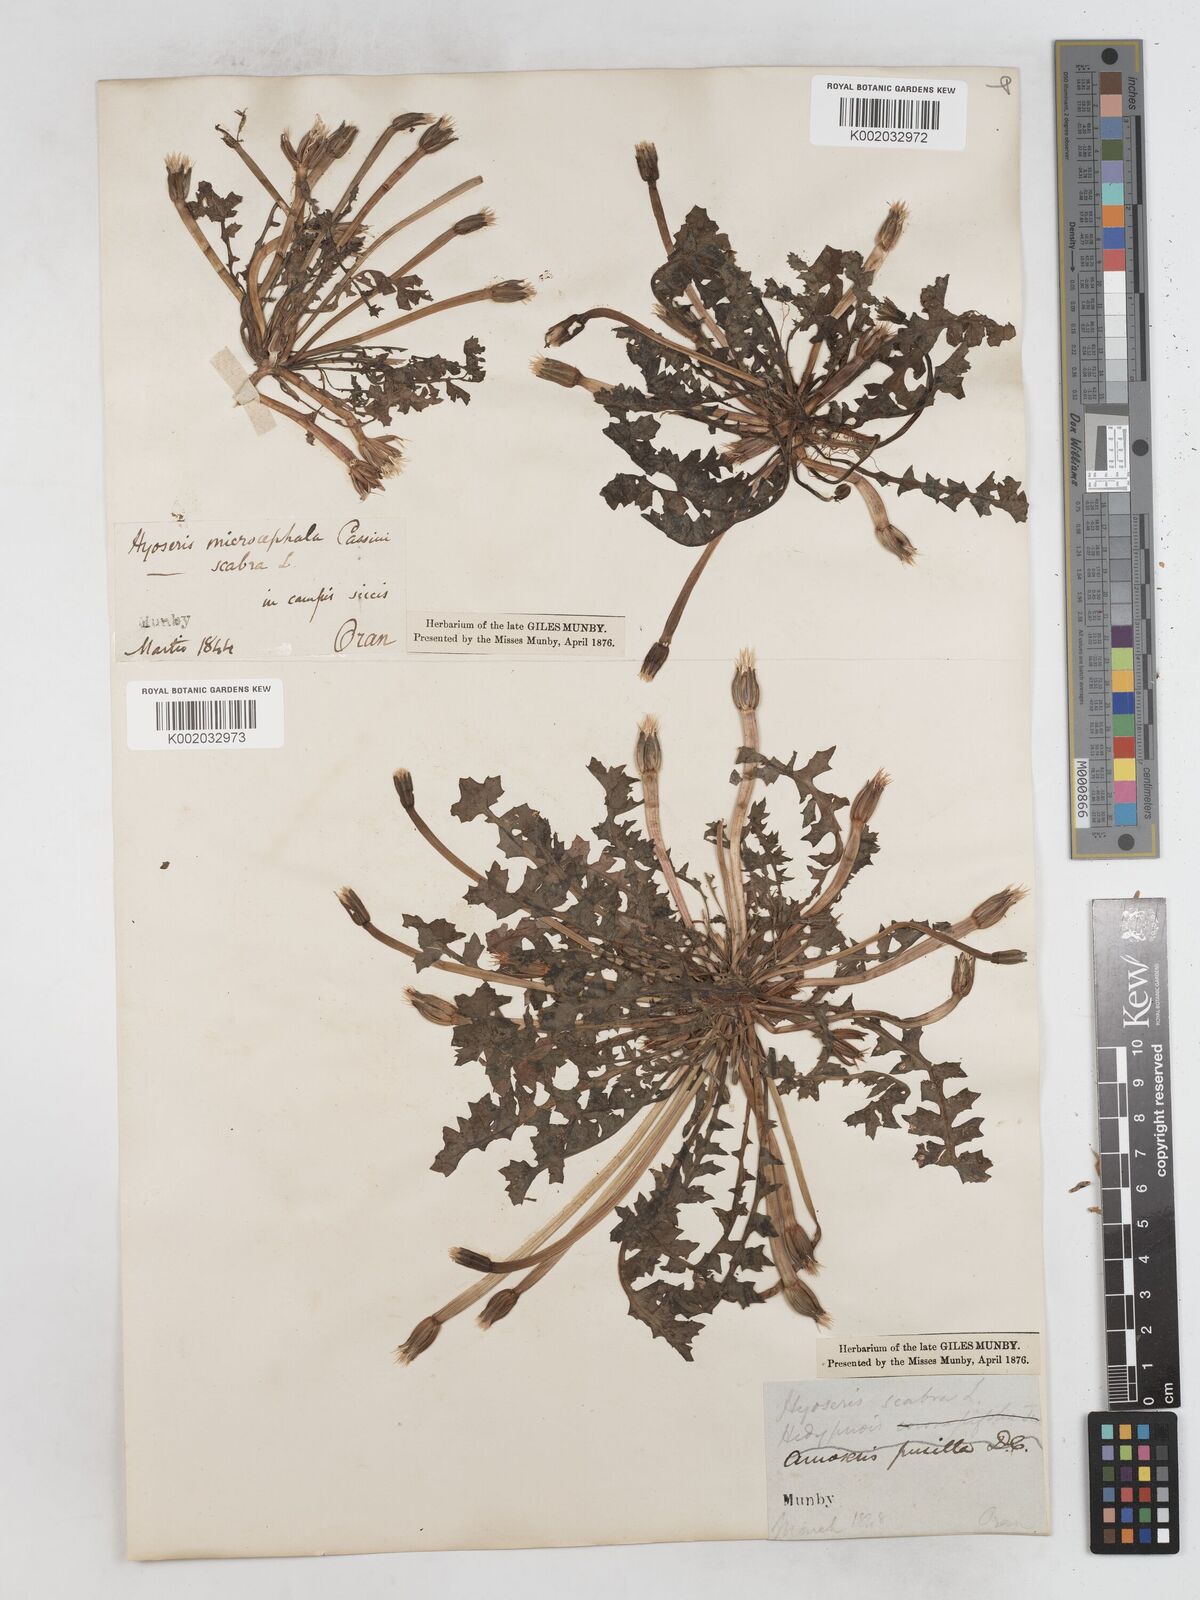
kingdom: Plantae
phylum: Tracheophyta
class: Magnoliopsida
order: Asterales
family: Asteraceae
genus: Hyoseris
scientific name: Hyoseris scabra
